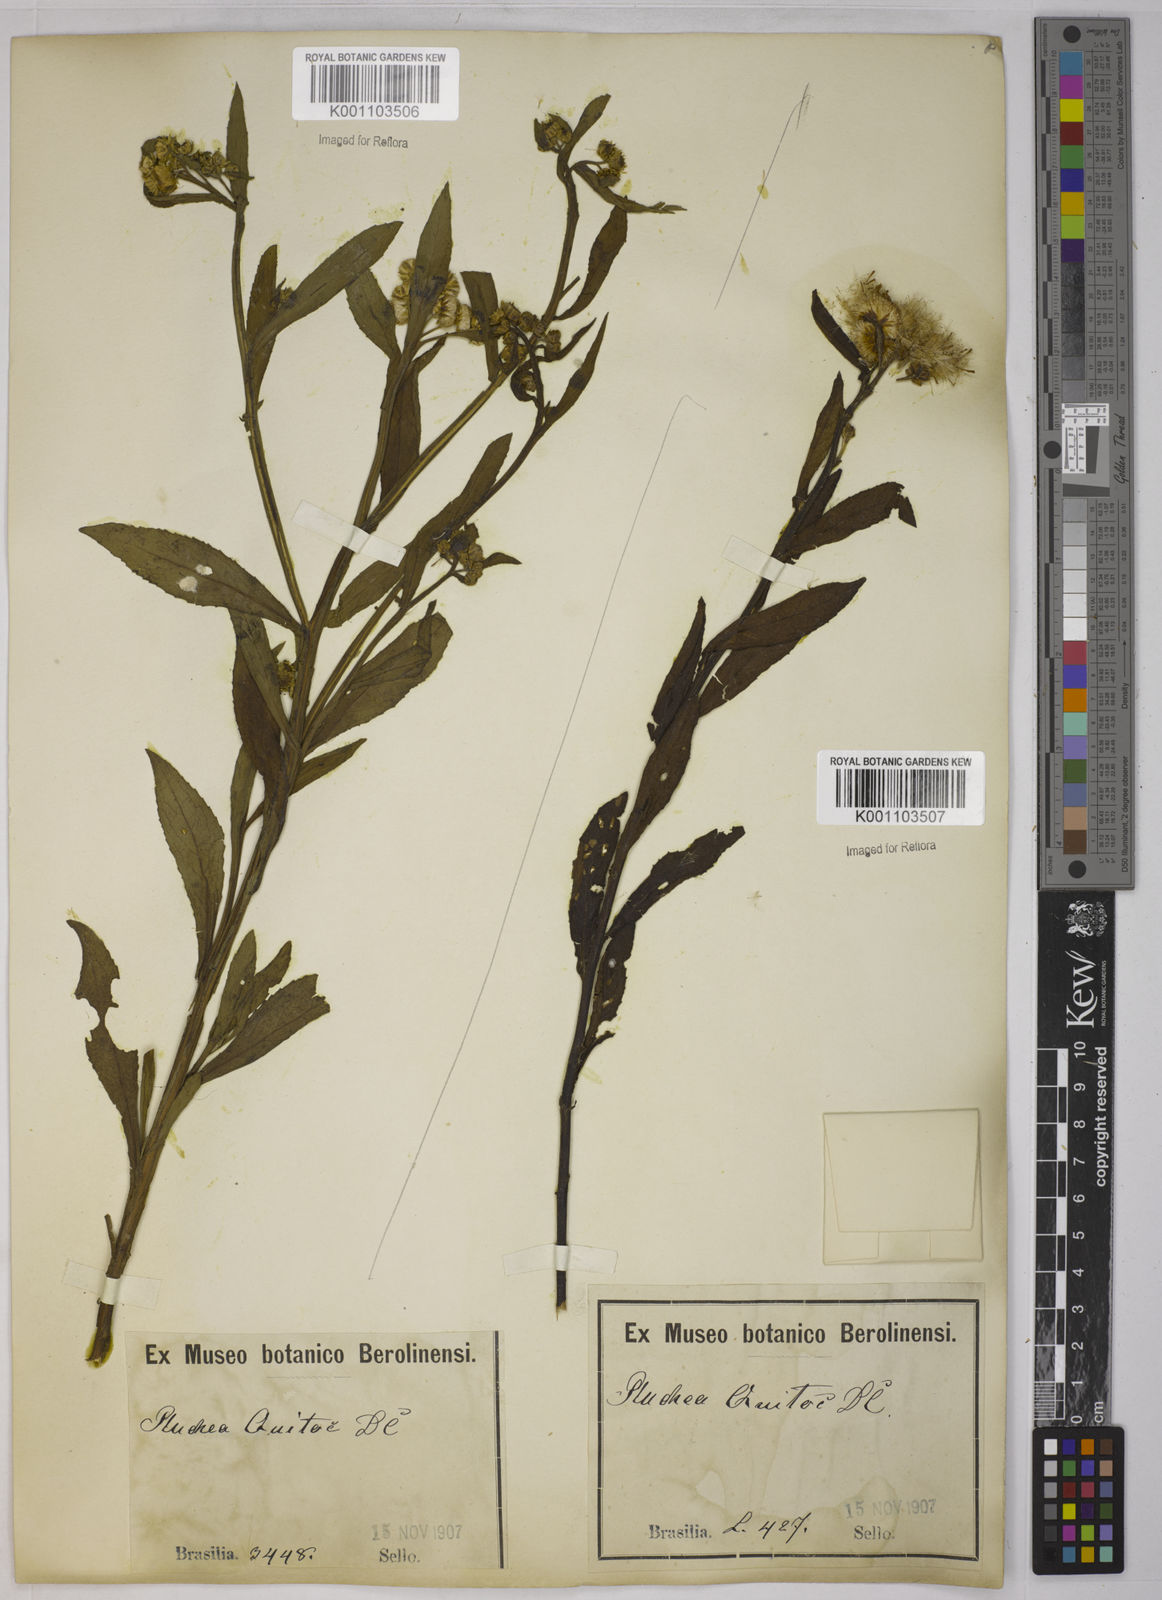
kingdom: Plantae
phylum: Tracheophyta
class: Magnoliopsida
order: Asterales
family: Asteraceae
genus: Pluchea
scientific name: Pluchea sagittalis
